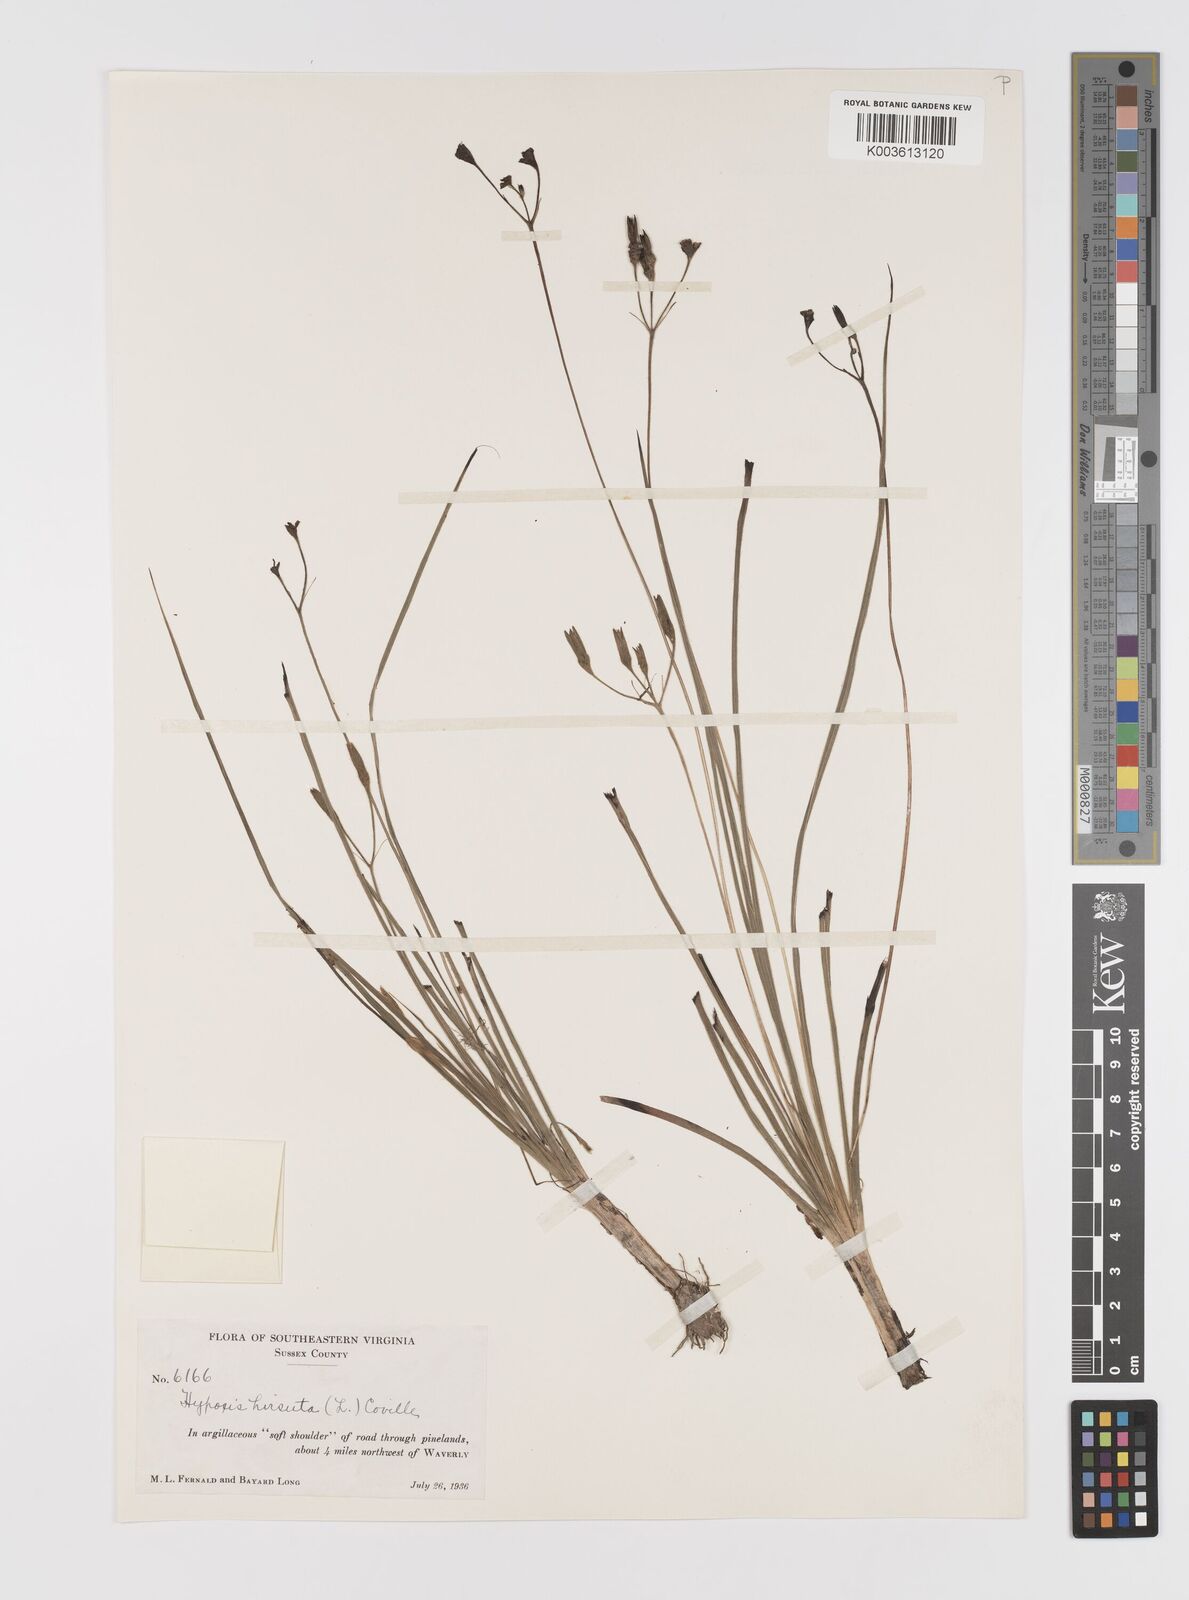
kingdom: Plantae
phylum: Tracheophyta
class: Liliopsida
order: Asparagales
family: Hypoxidaceae
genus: Hypoxis
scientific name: Hypoxis hirsuta
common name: Common goldstar
